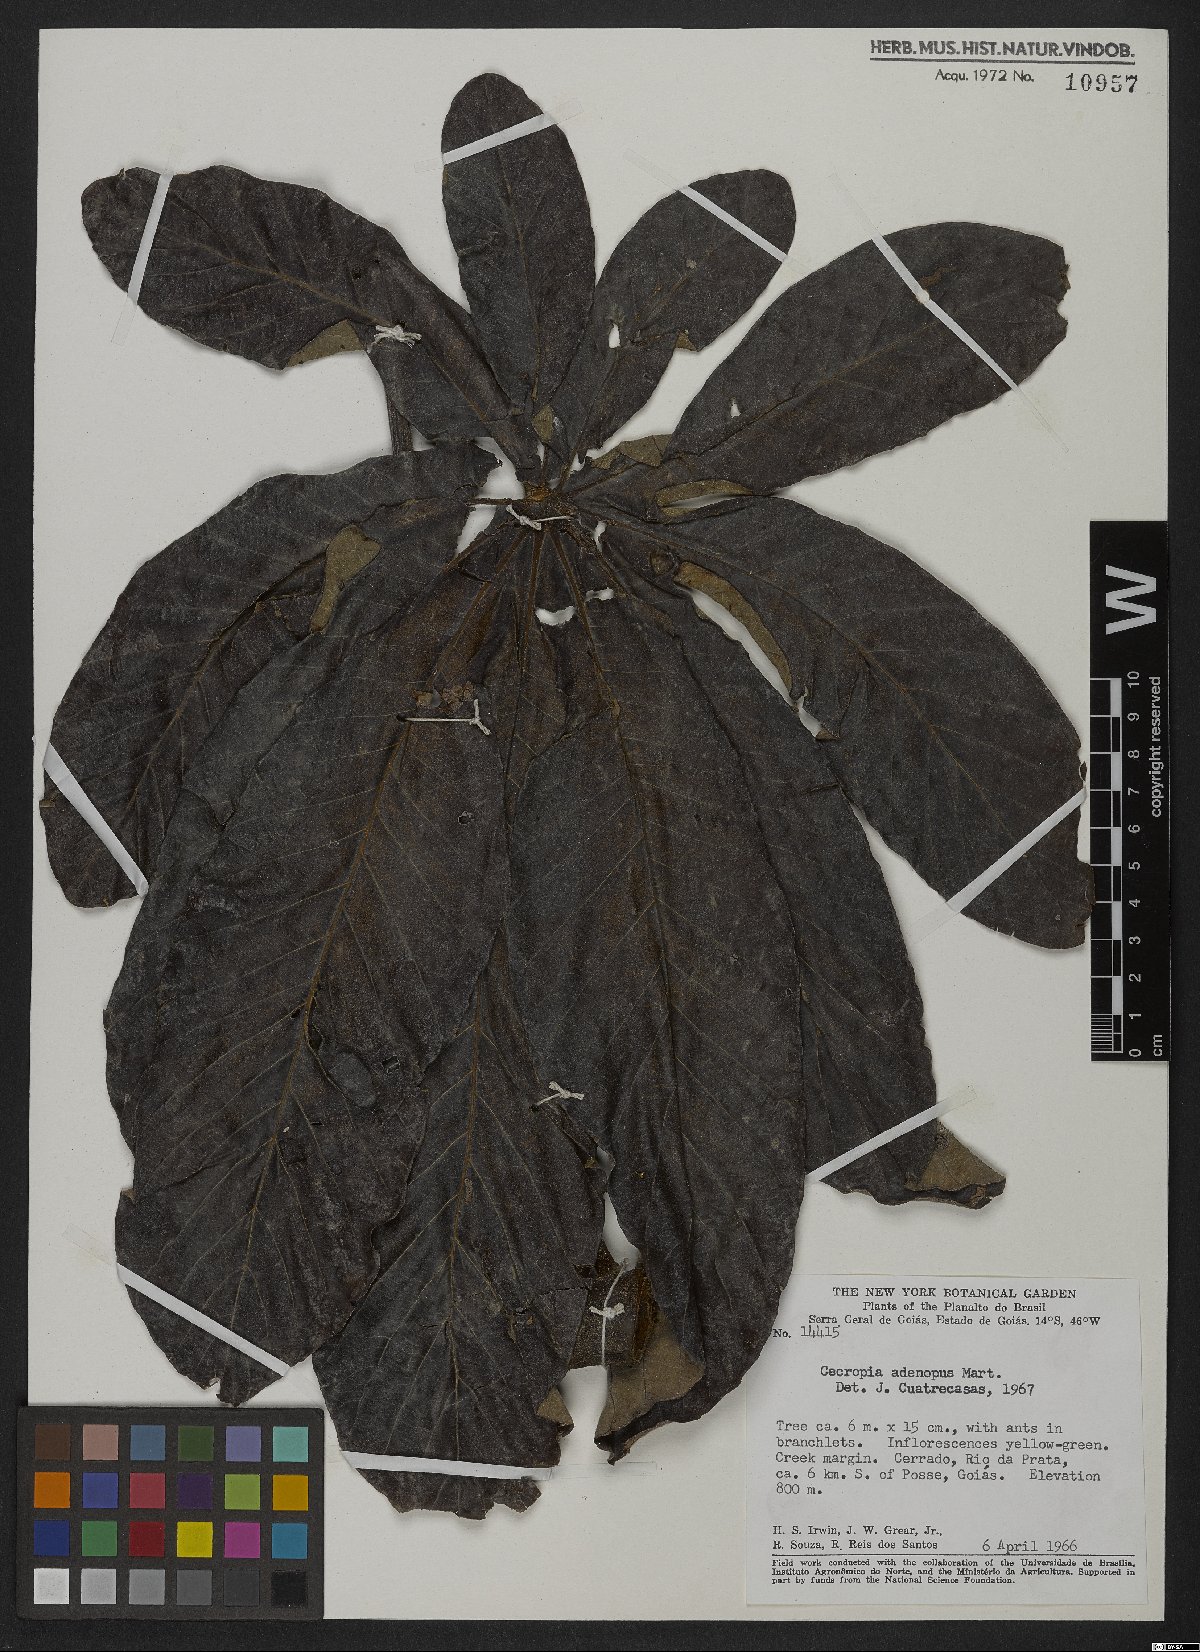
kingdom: Plantae
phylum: Tracheophyta
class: Magnoliopsida
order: Rosales
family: Urticaceae
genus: Cecropia
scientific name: Cecropia pachystachya
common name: Ambay pumpwood
